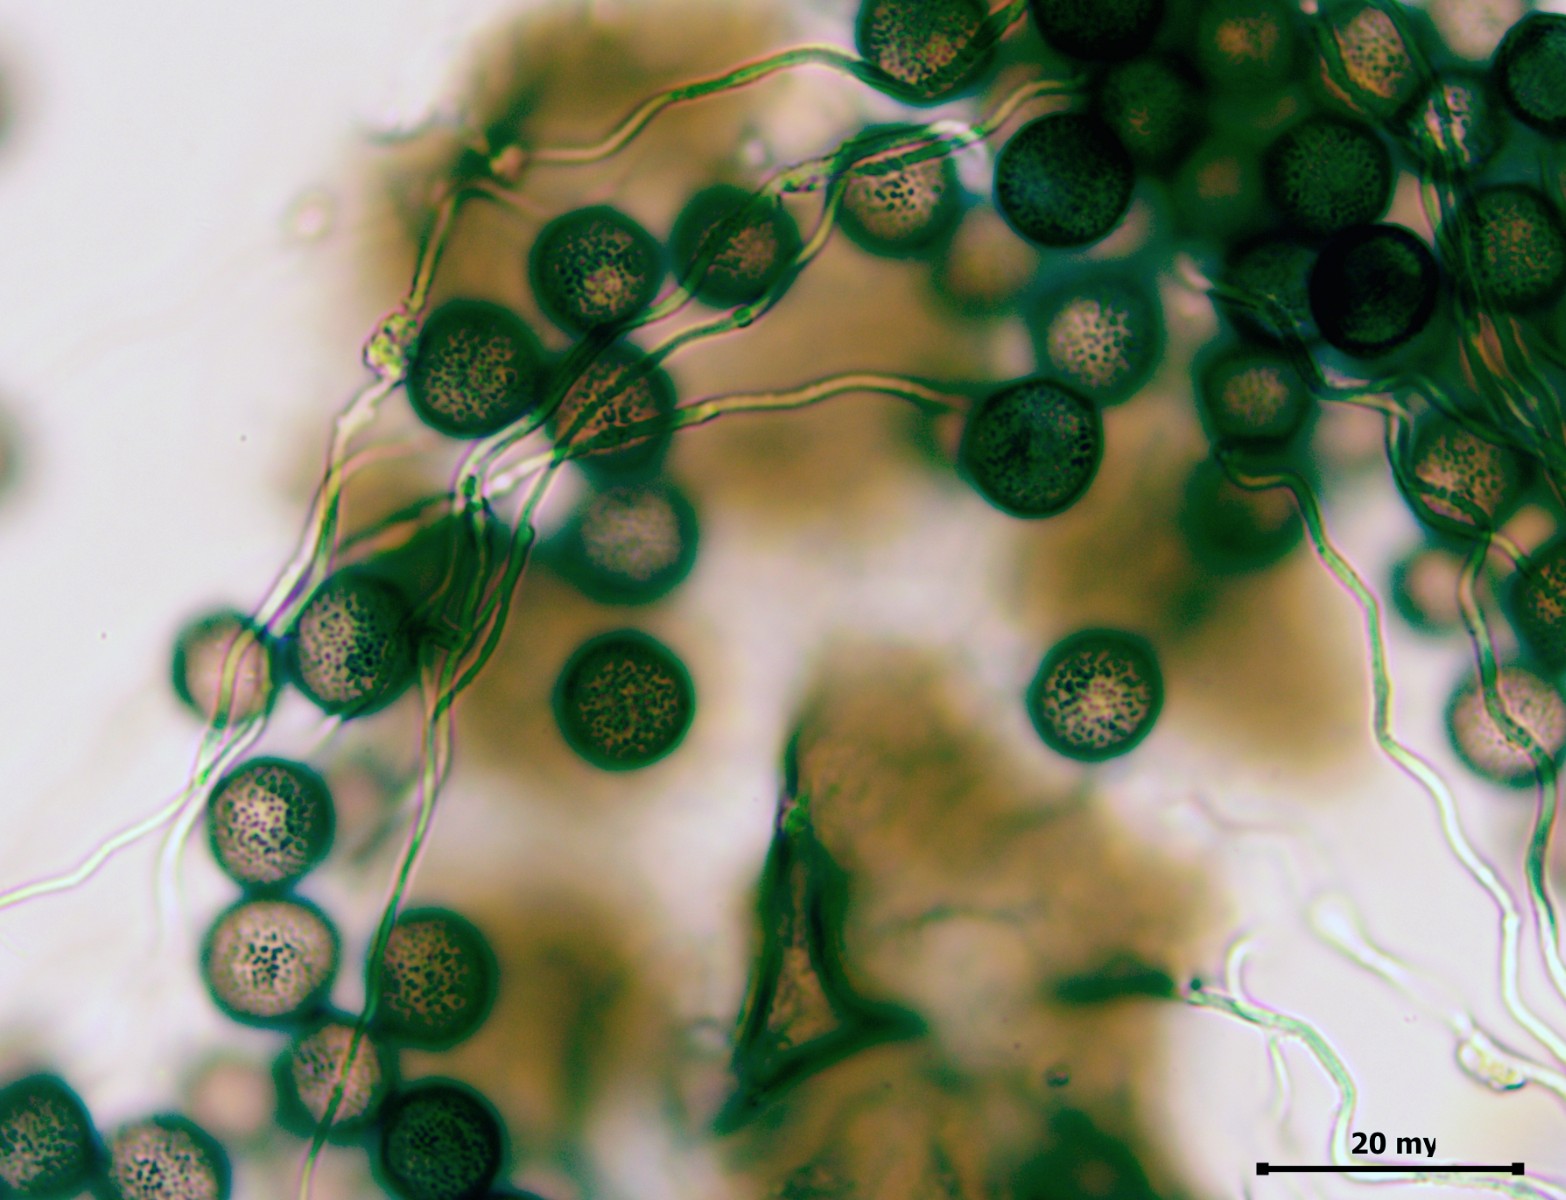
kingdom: Protozoa
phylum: Mycetozoa
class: Myxomycetes
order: Physarales
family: Didymiaceae
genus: Didymium
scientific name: Didymium melanospermum
